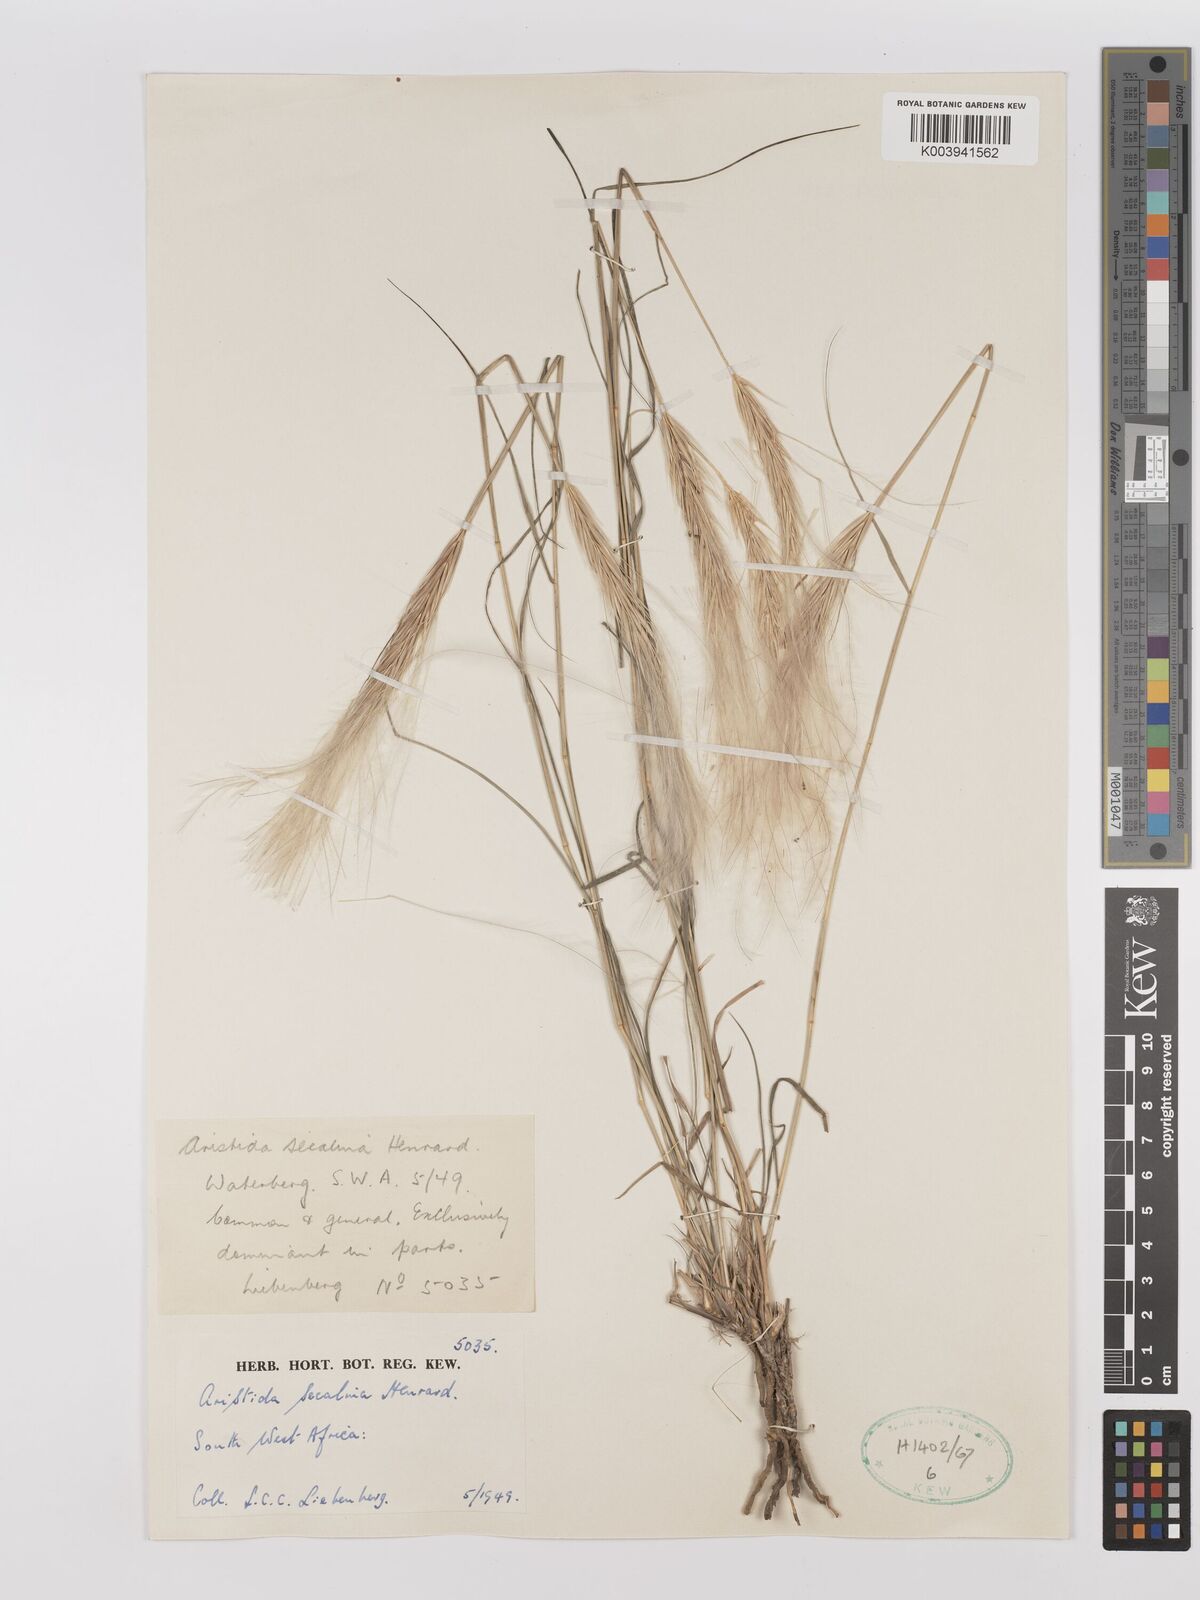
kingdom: Plantae
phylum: Tracheophyta
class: Liliopsida
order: Poales
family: Poaceae
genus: Stipagrostis
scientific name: Stipagrostis hochstetteriana
